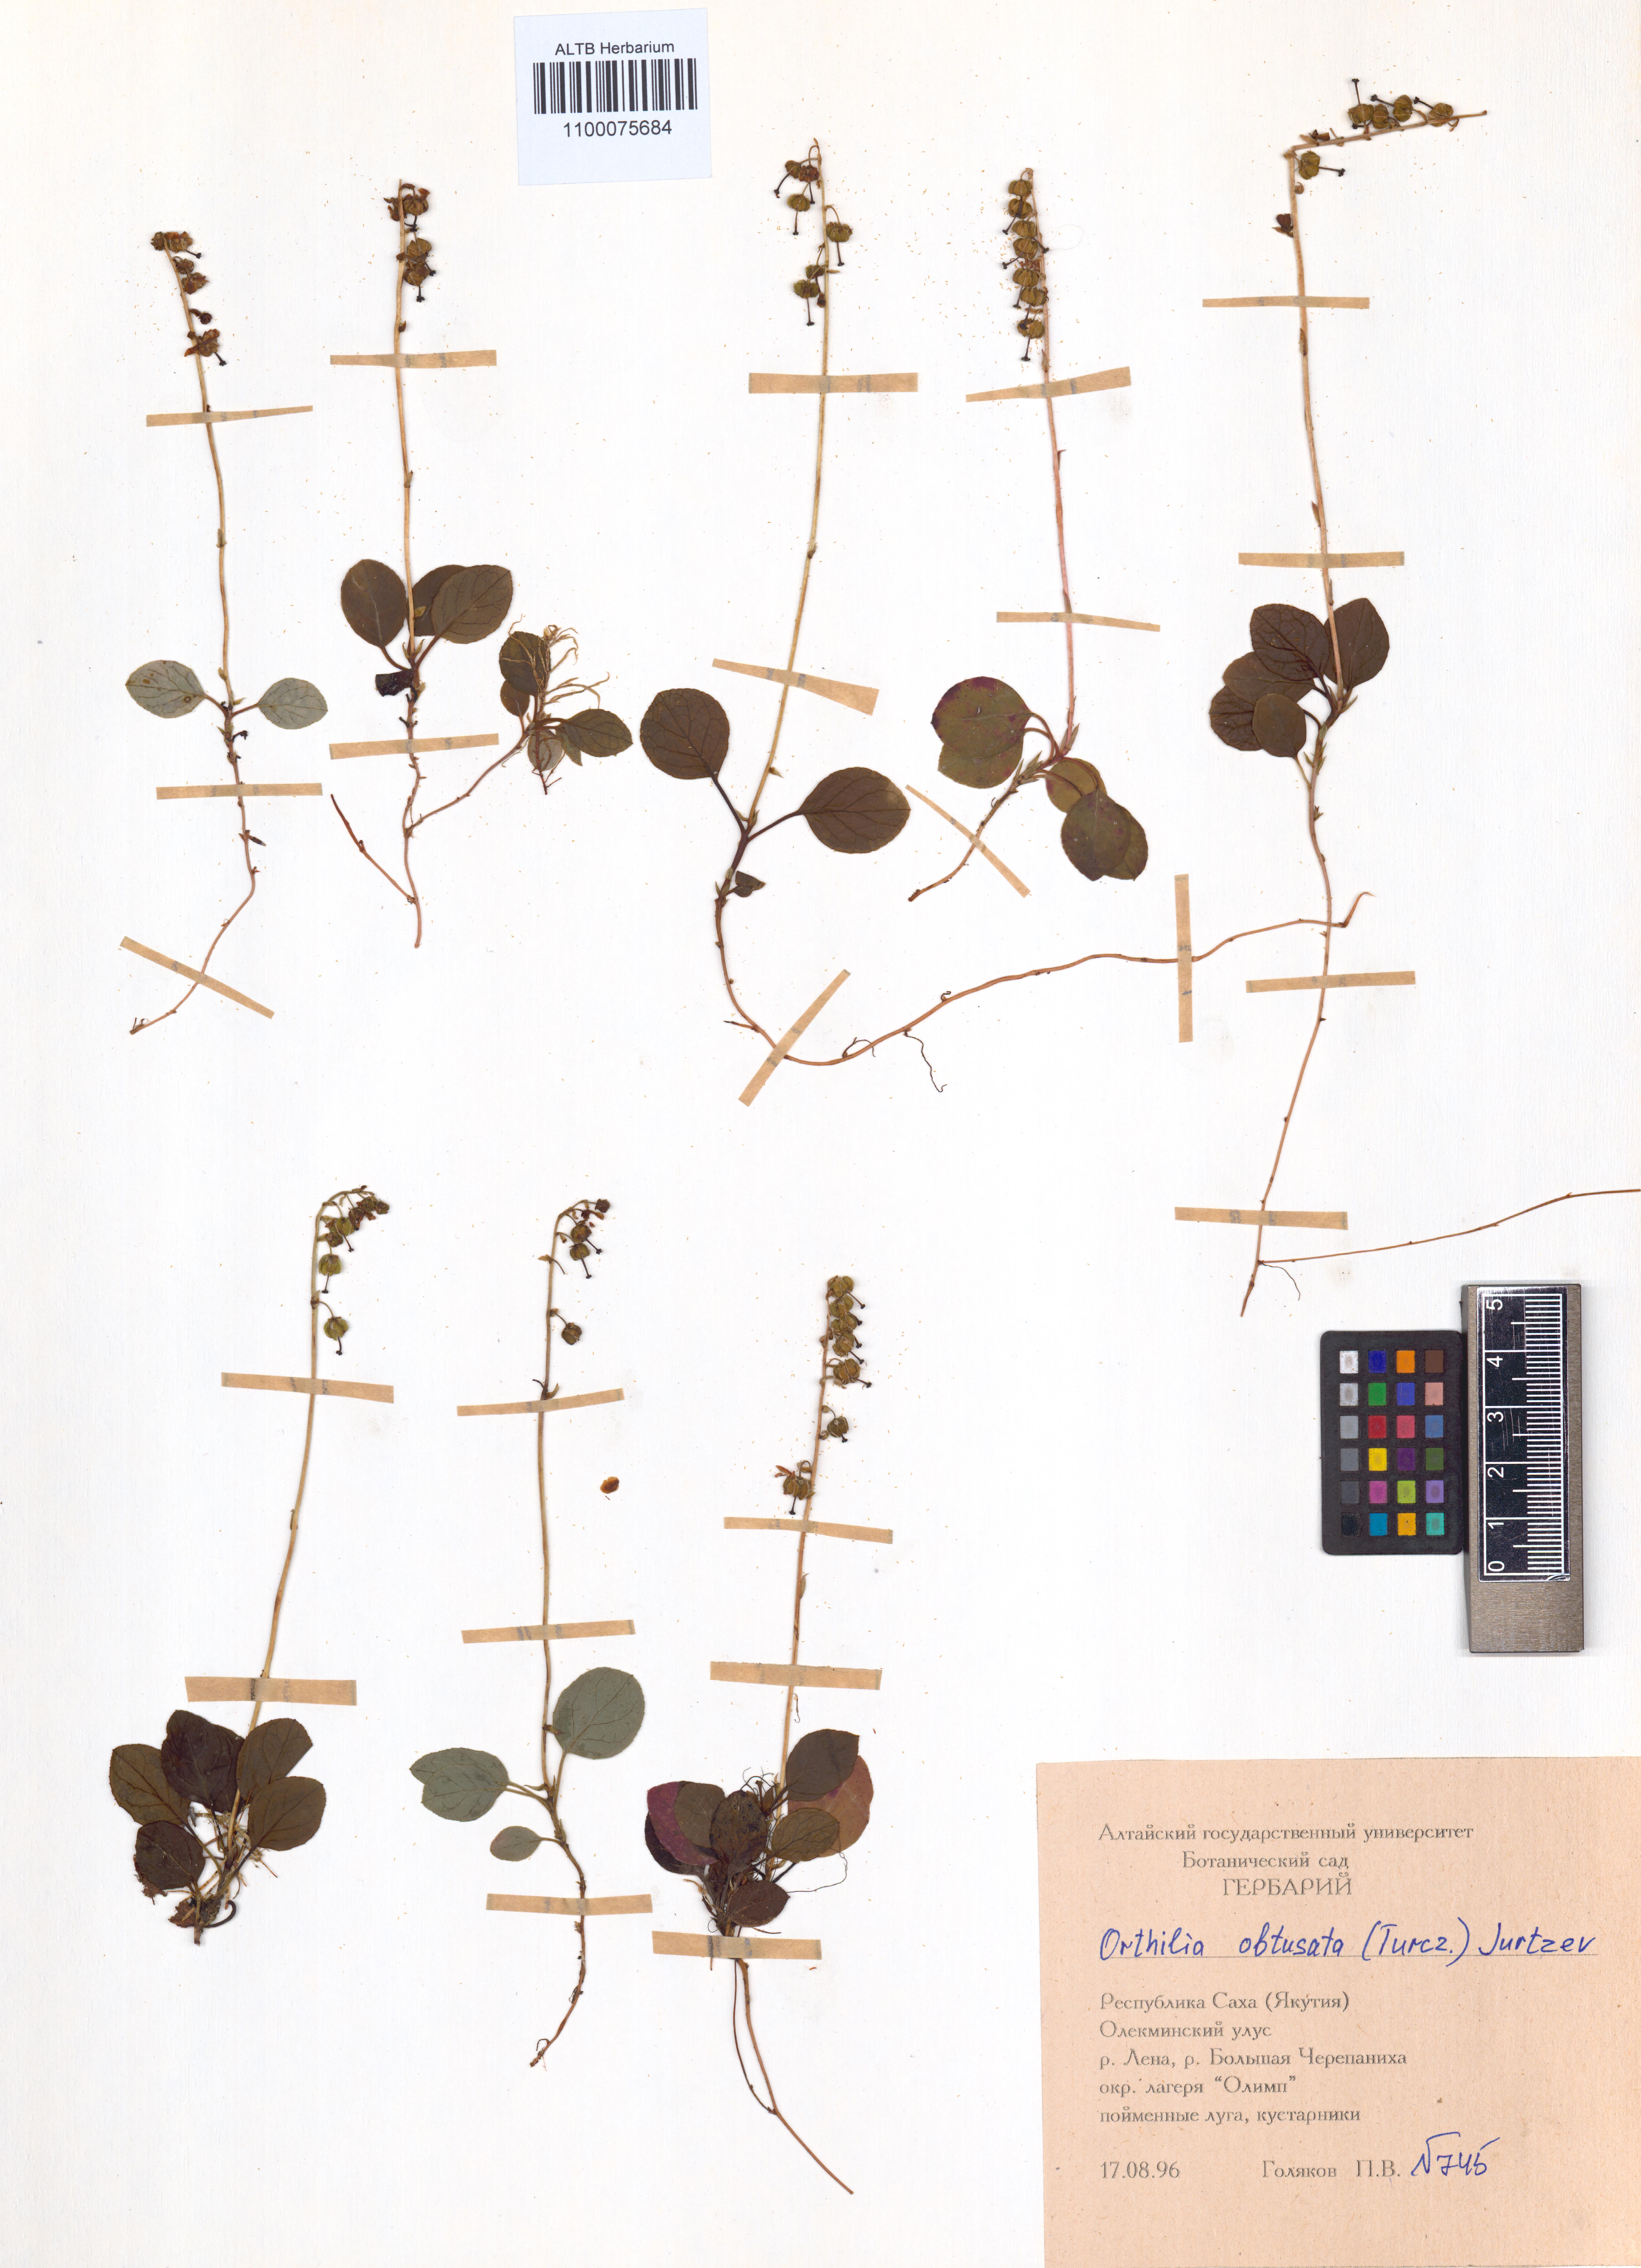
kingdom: Plantae
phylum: Tracheophyta
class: Magnoliopsida
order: Ericales
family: Ericaceae
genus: Orthilia
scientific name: Orthilia secunda
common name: One-sided orthilia
